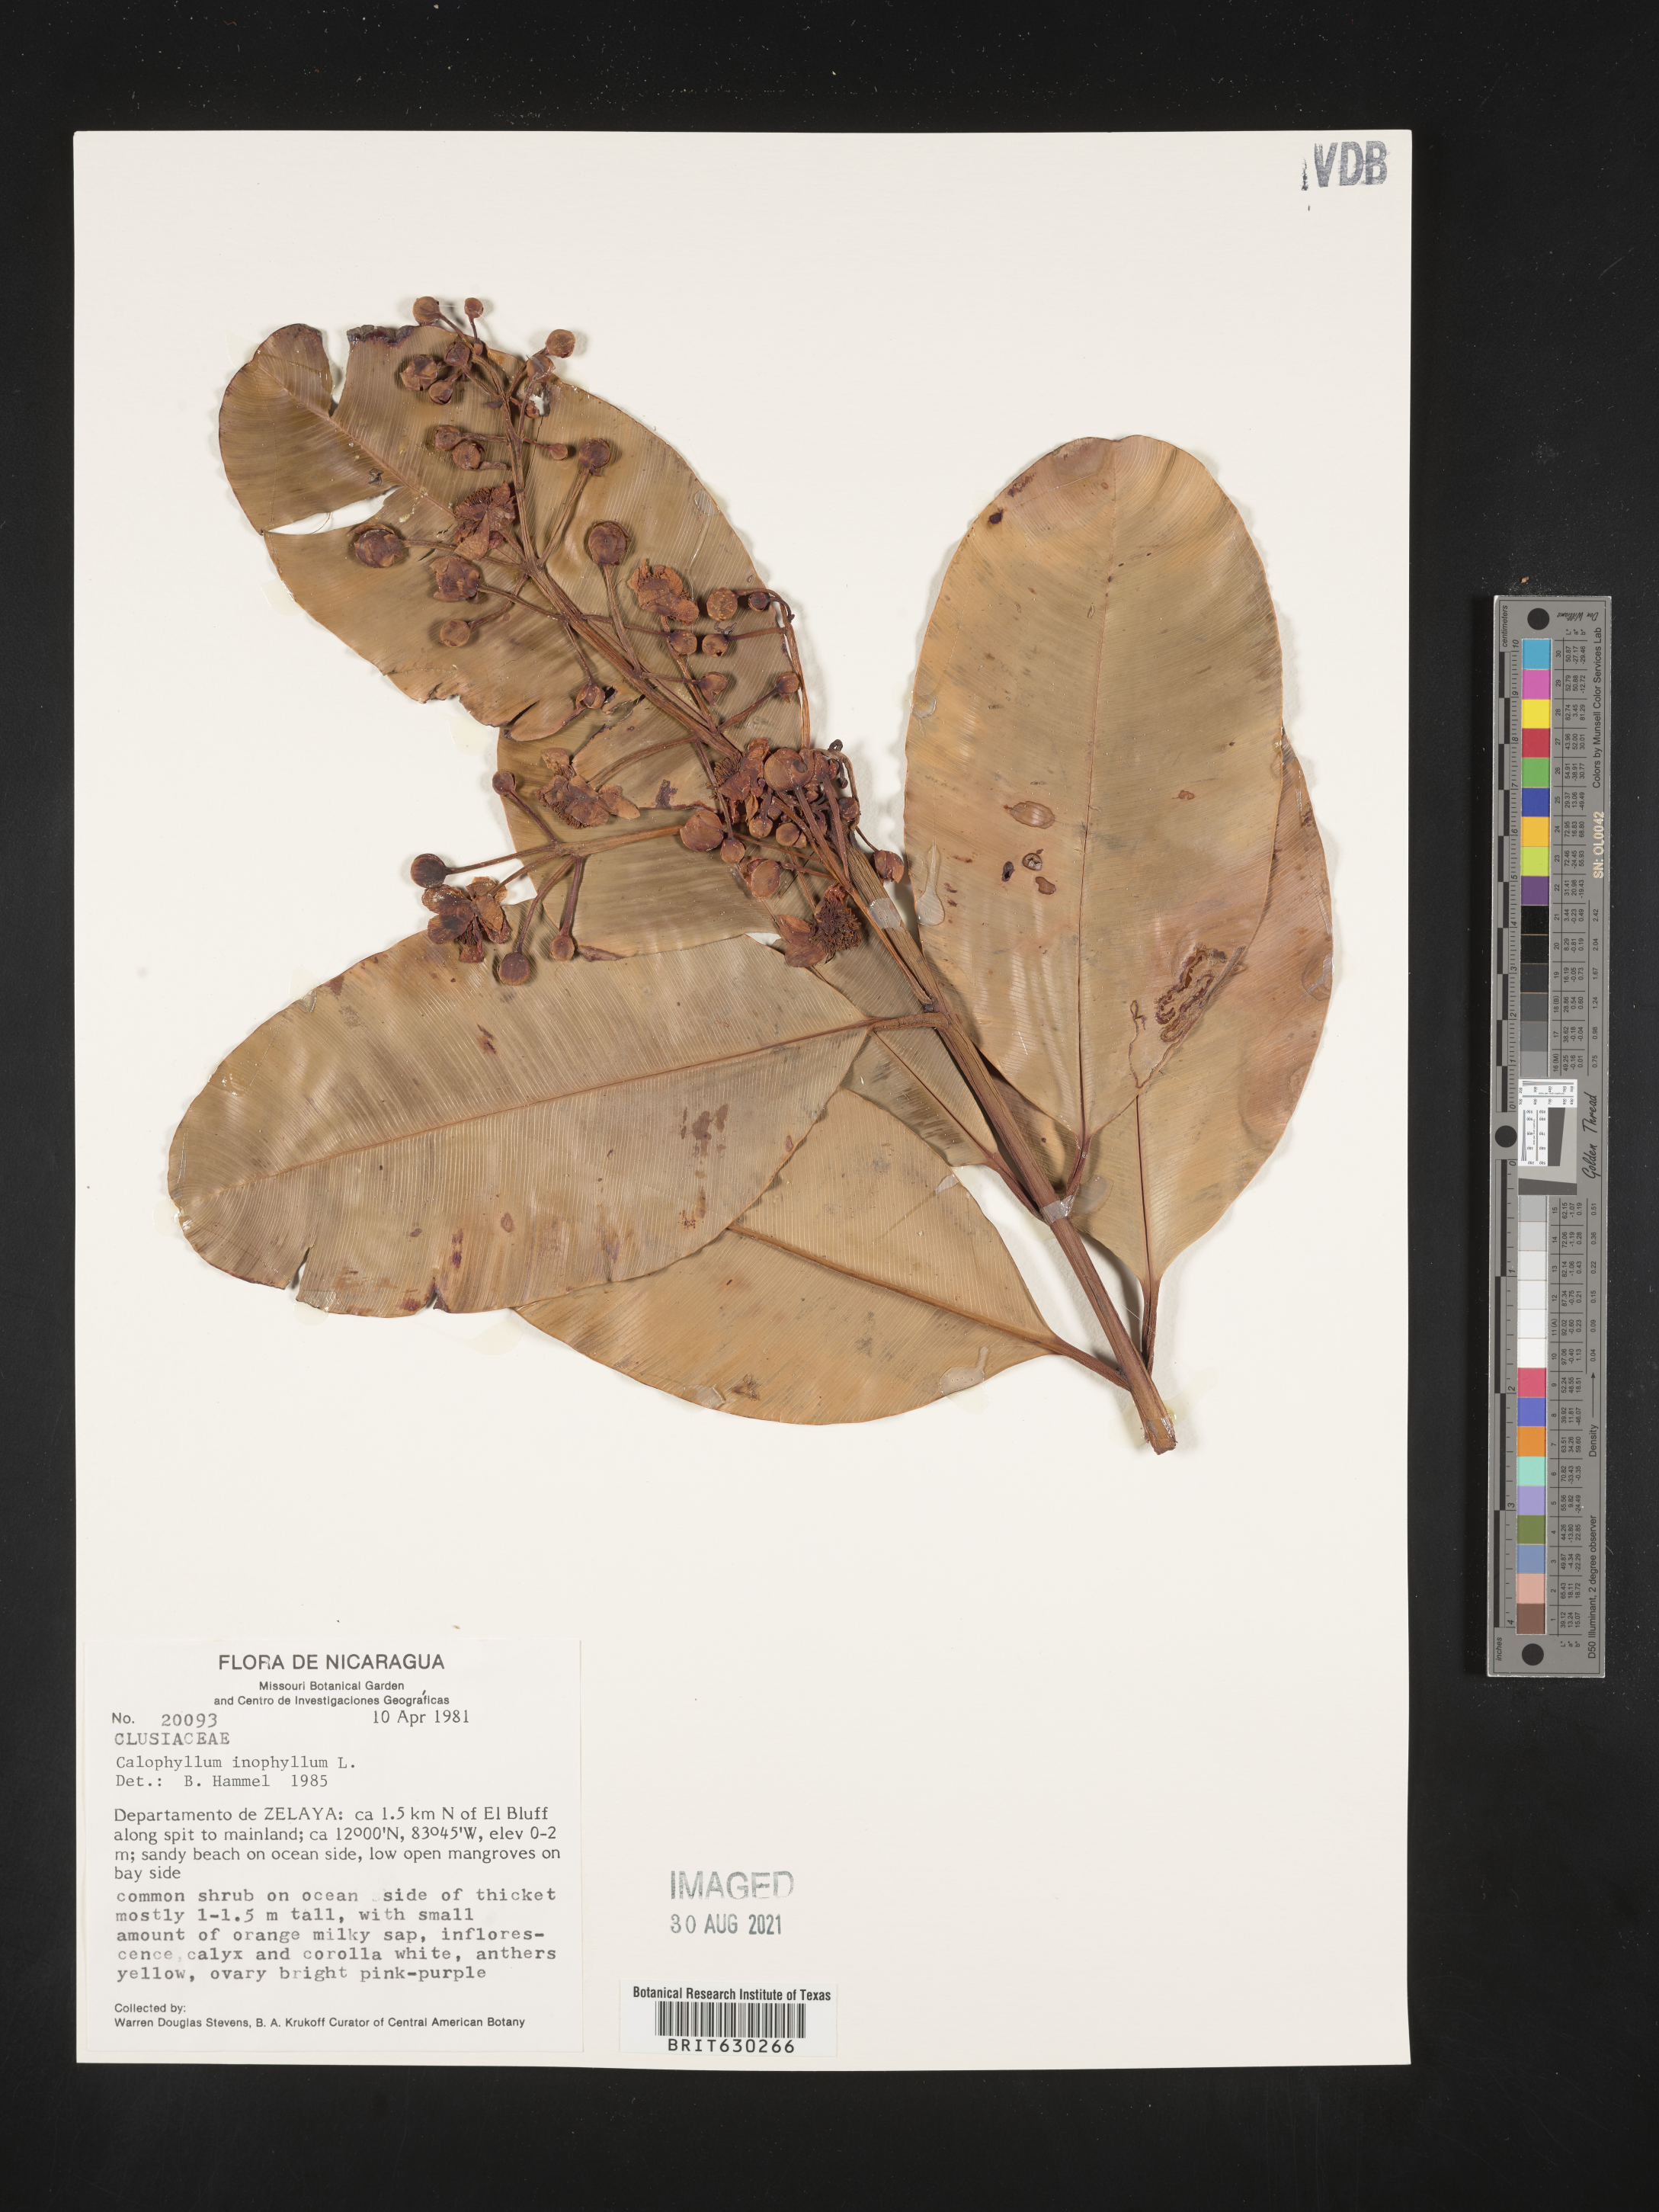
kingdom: Plantae
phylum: Tracheophyta
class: Magnoliopsida
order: Malpighiales
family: Calophyllaceae
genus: Calophyllum
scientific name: Calophyllum inophyllum
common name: Alexandrian laurel
